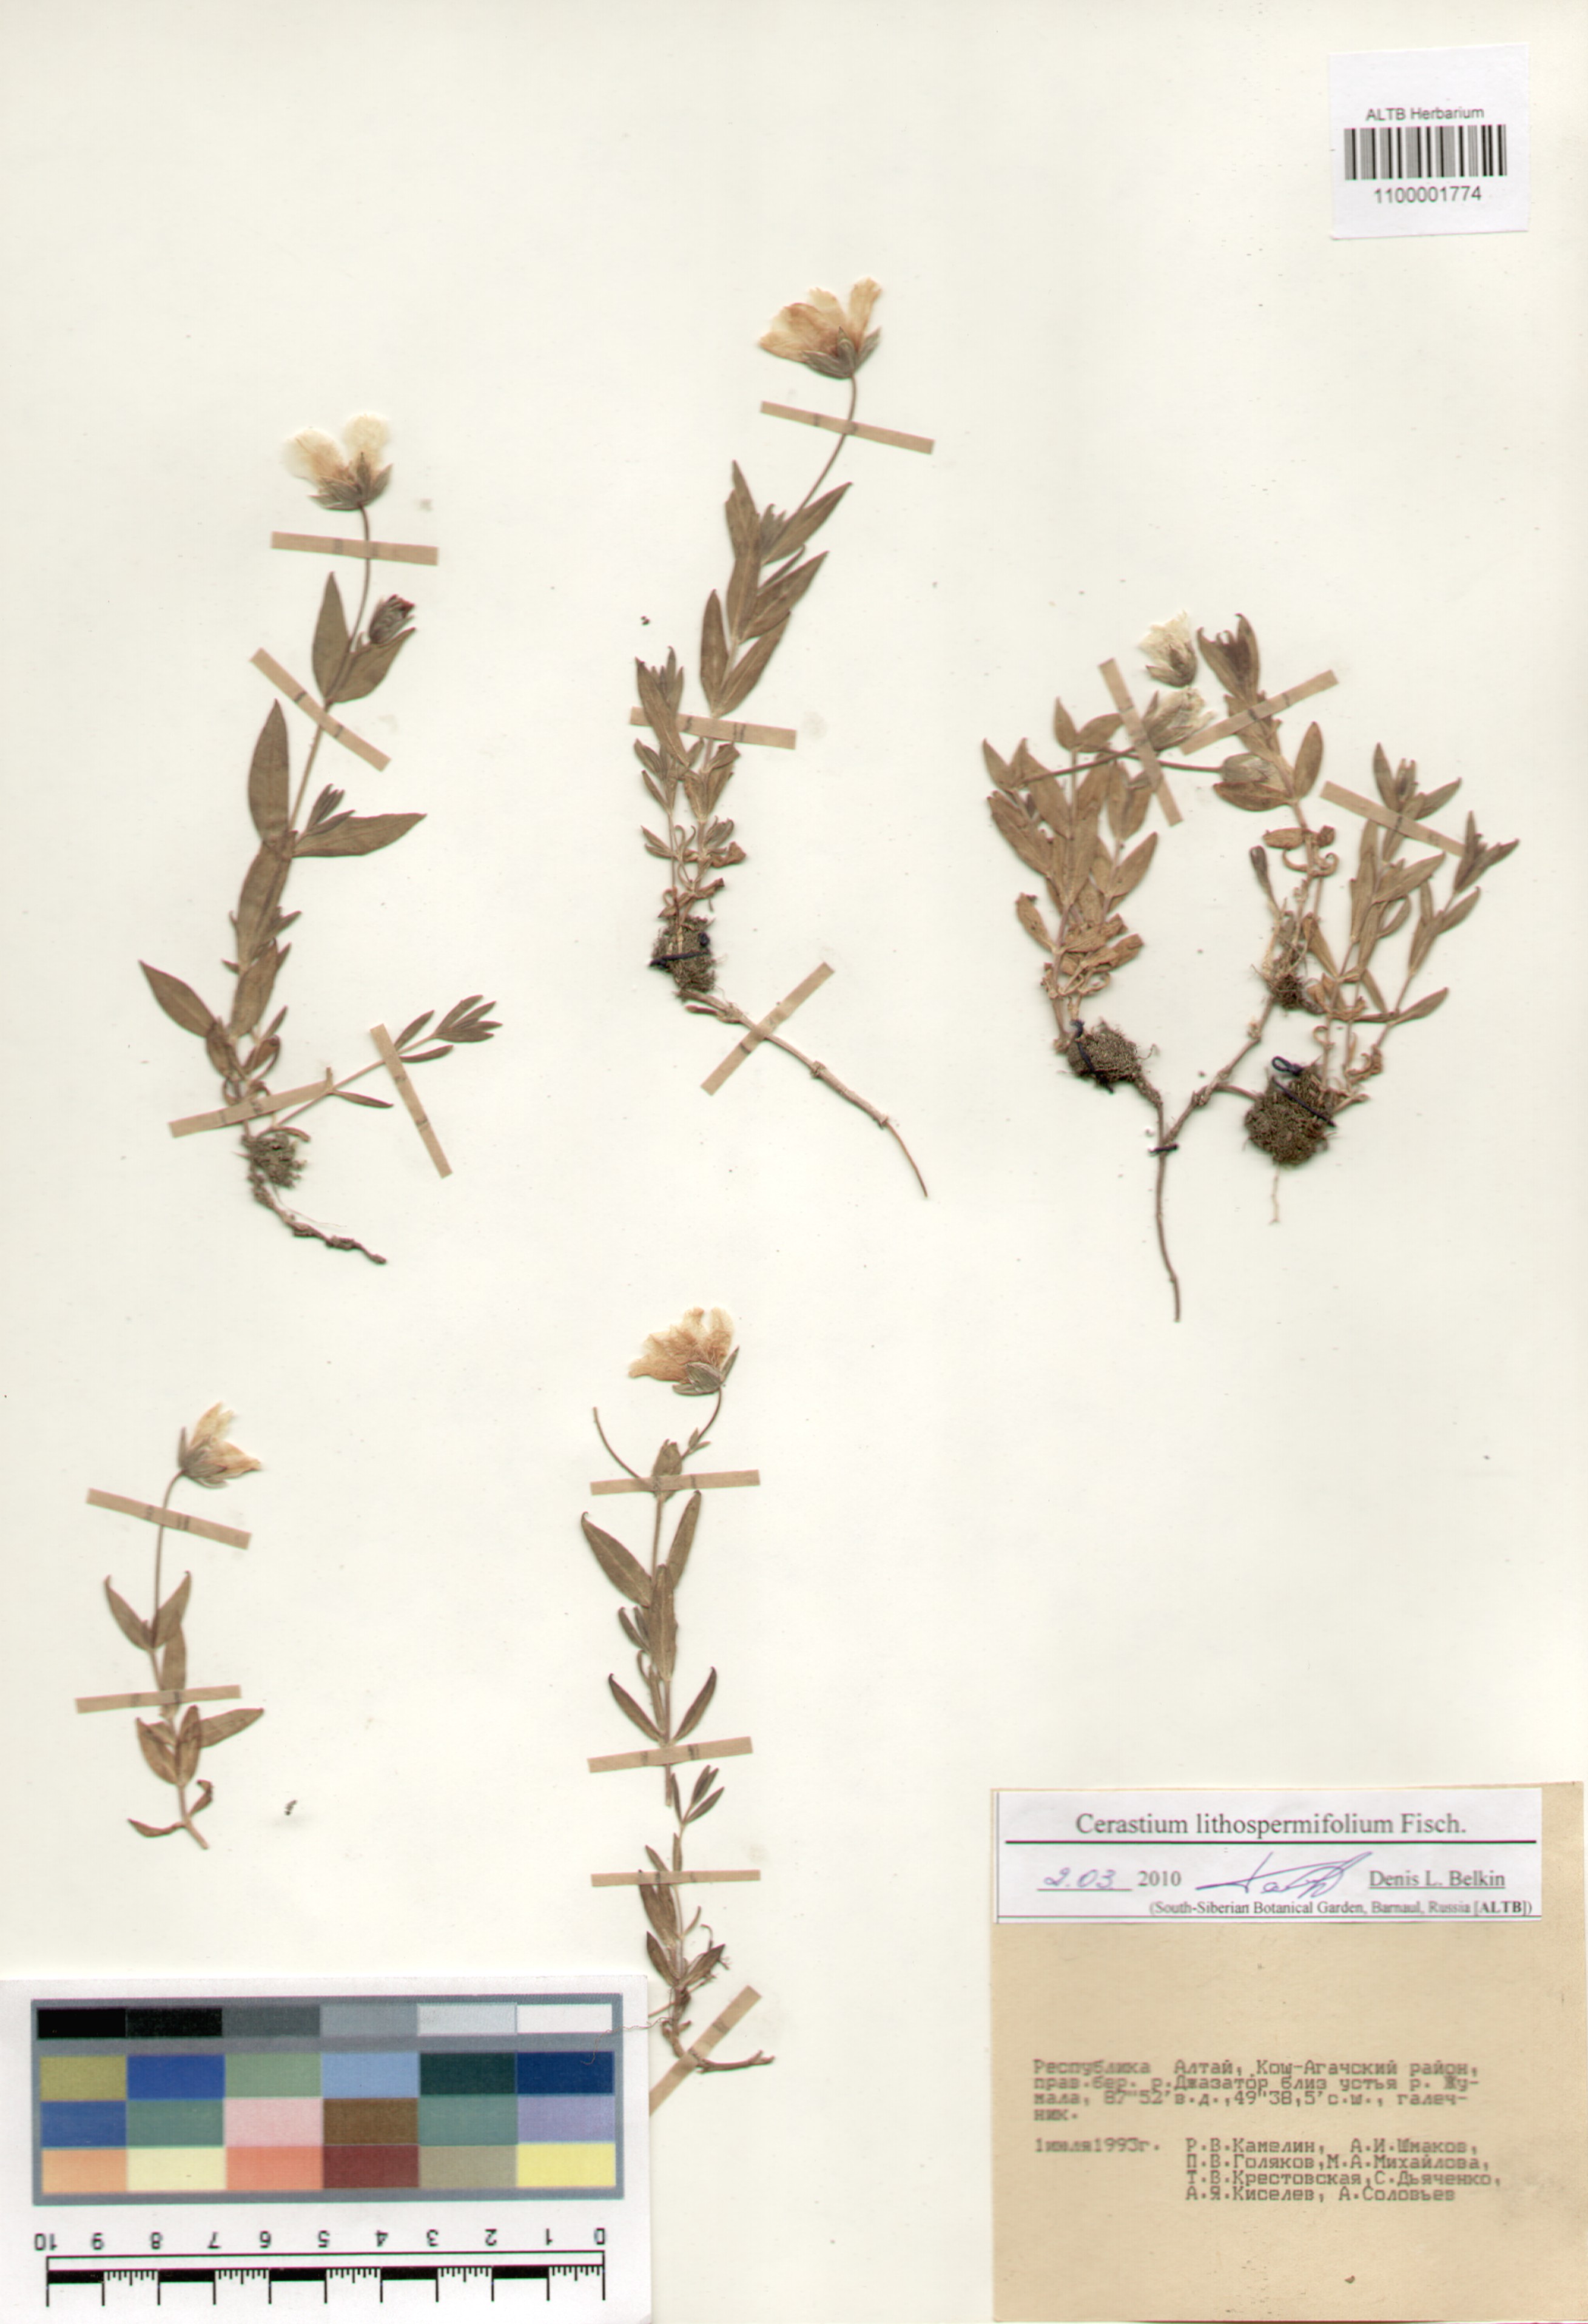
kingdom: Plantae
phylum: Tracheophyta
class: Magnoliopsida
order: Caryophyllales
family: Caryophyllaceae
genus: Cerastium
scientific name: Cerastium lithospermifolium
